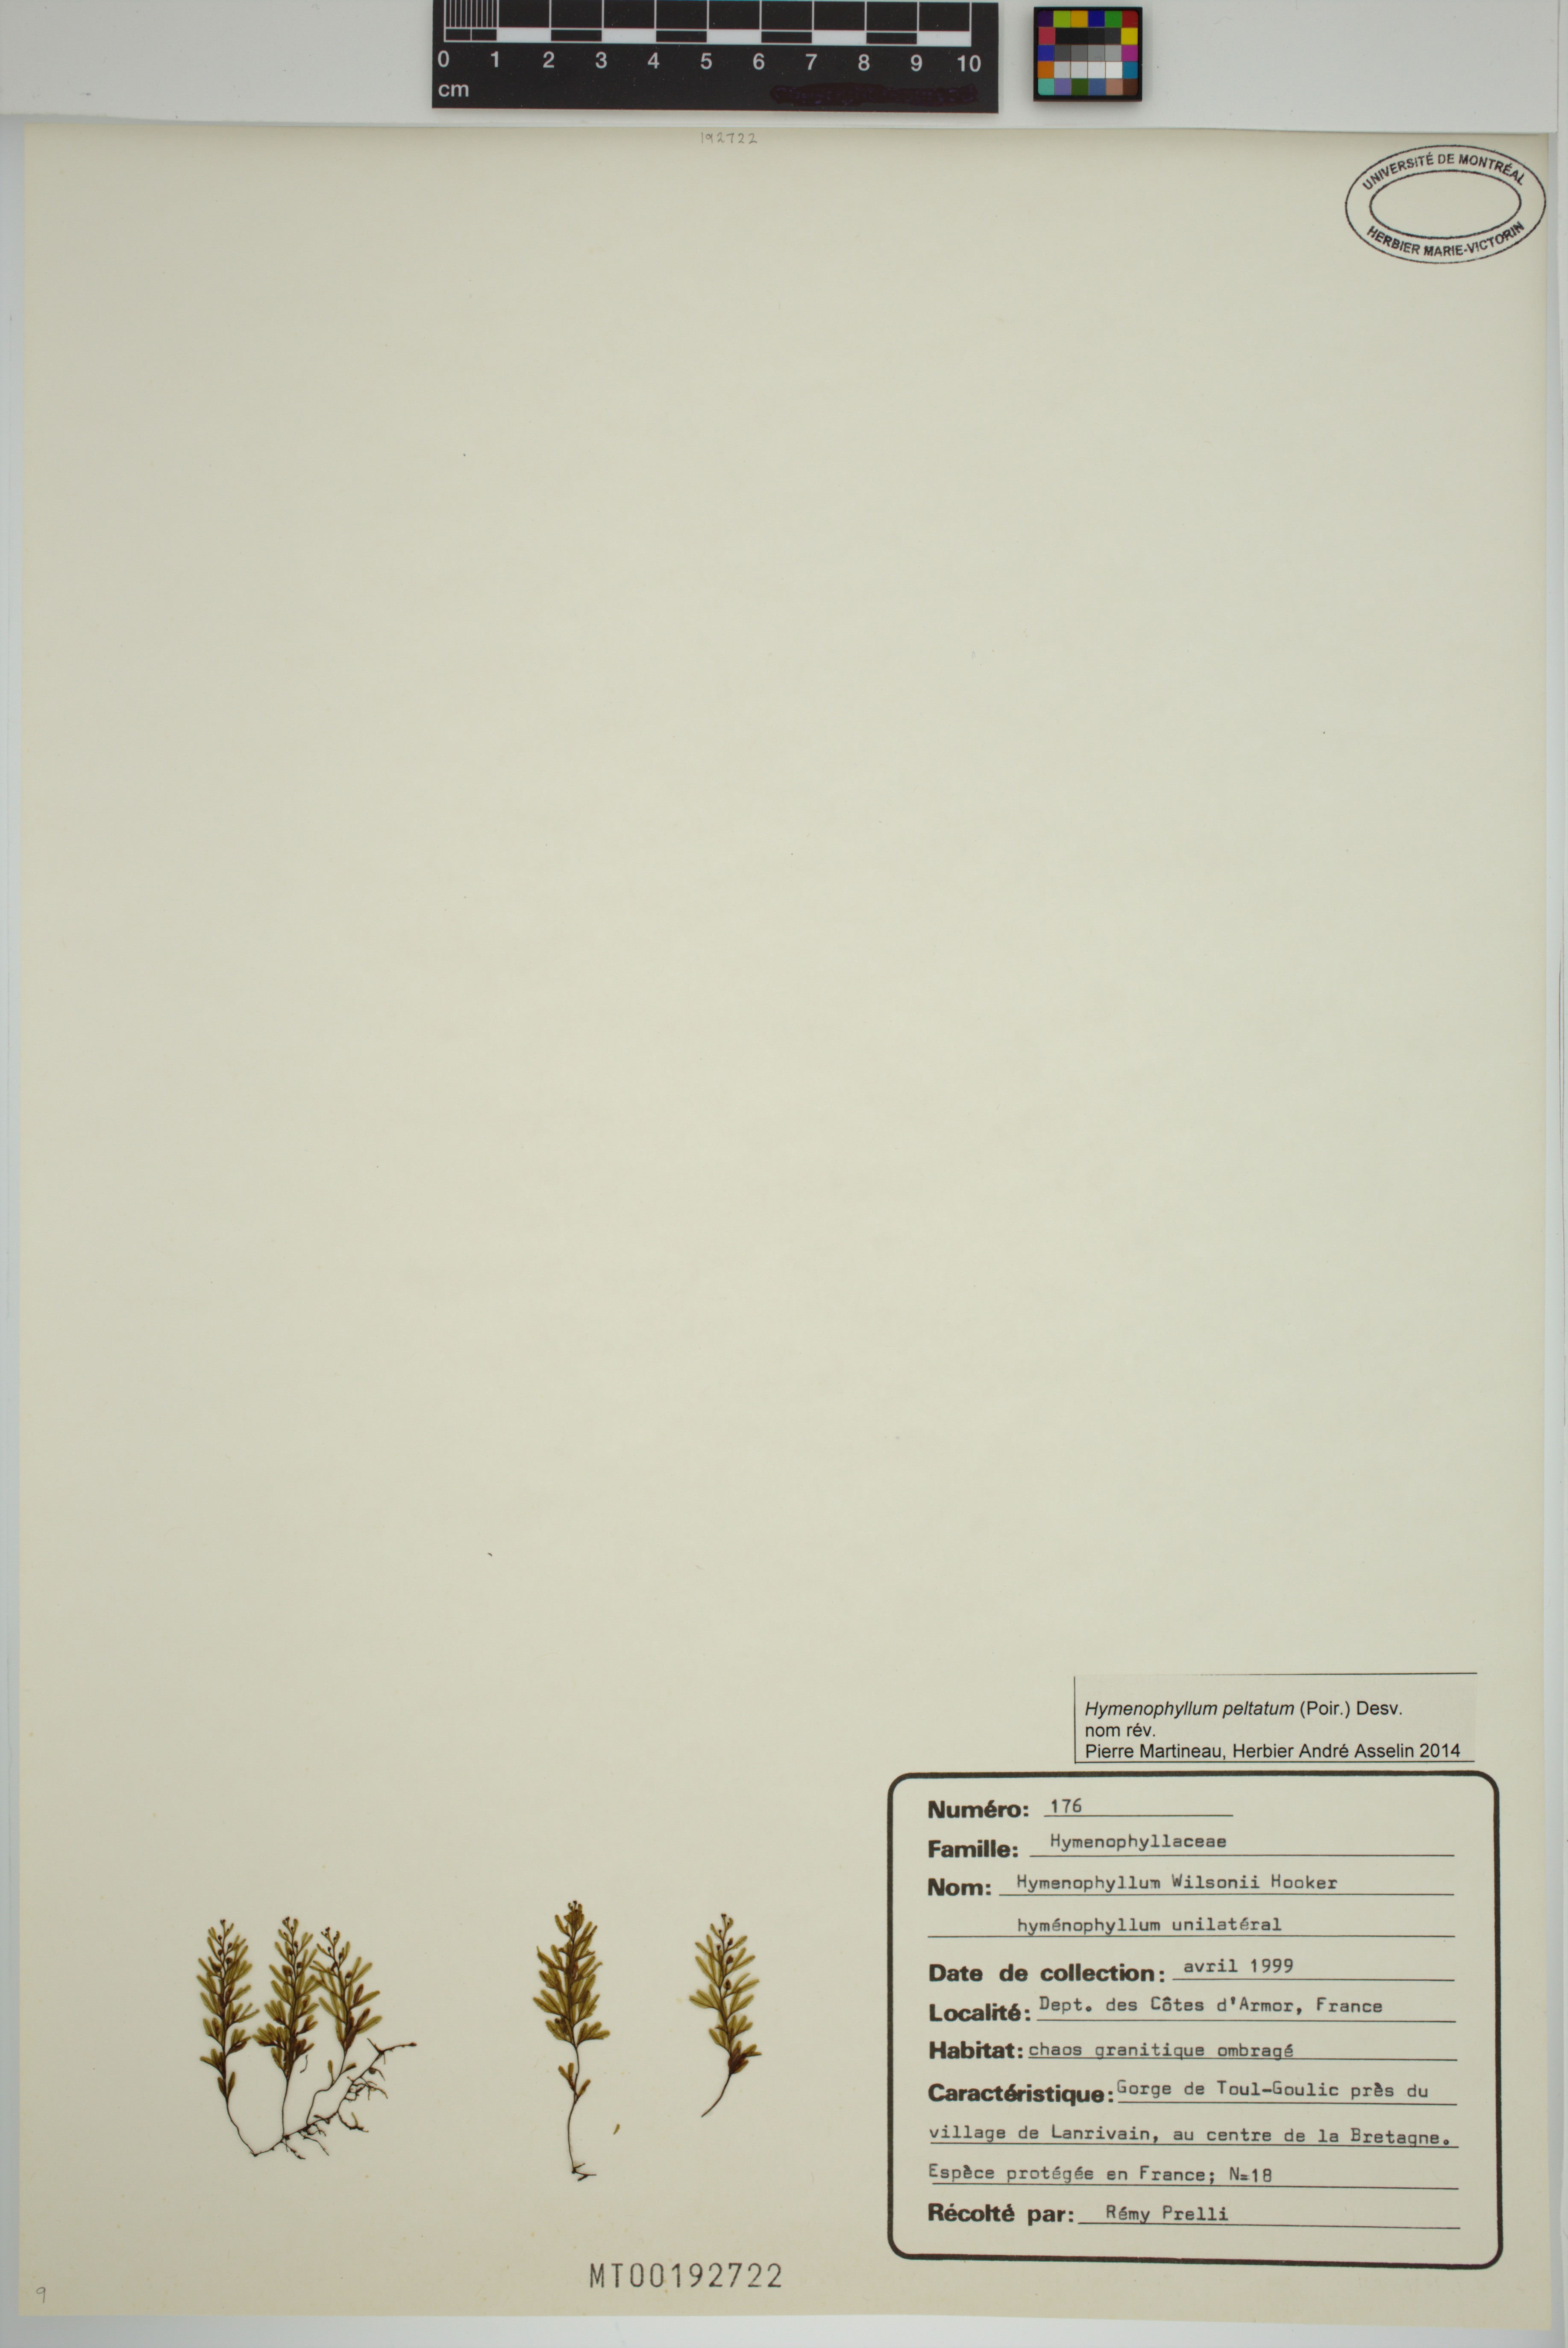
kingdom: Plantae
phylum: Tracheophyta
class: Polypodiopsida
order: Hymenophyllales
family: Hymenophyllaceae
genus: Hymenophyllum
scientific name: Hymenophyllum peltatum
